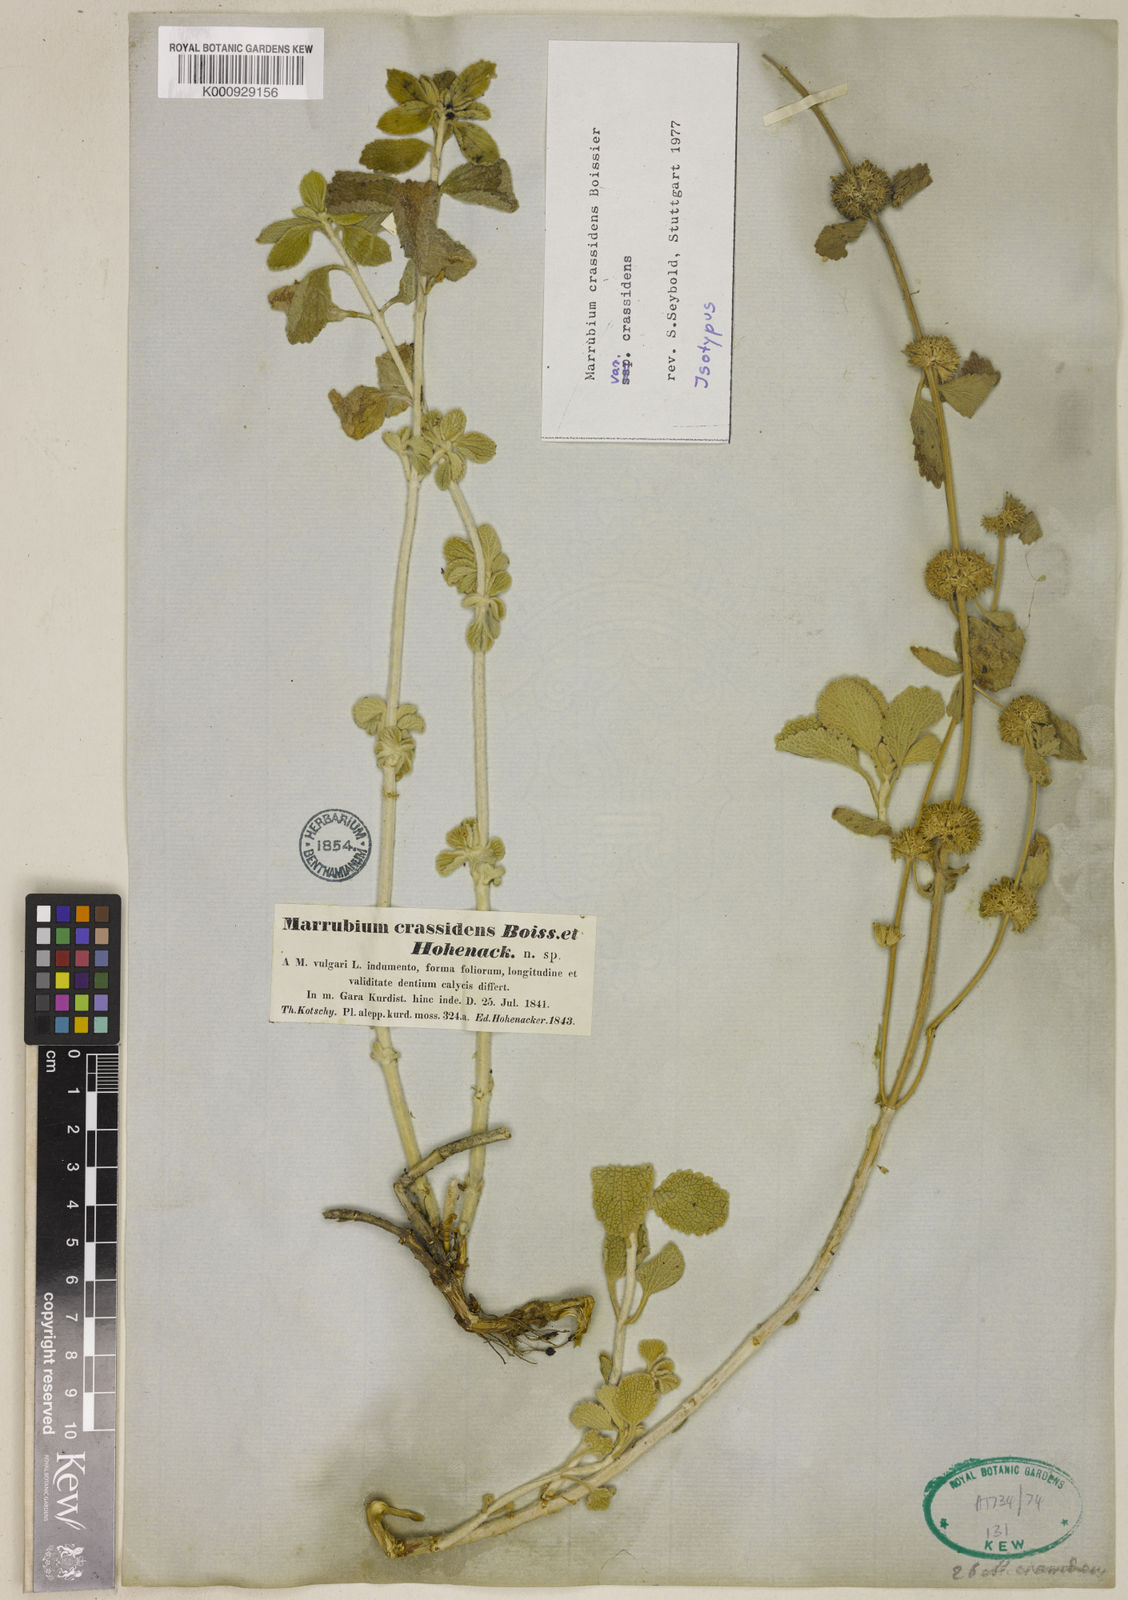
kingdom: Plantae
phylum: Tracheophyta
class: Magnoliopsida
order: Lamiales
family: Lamiaceae
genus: Marrubium
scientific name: Marrubium crassidens
